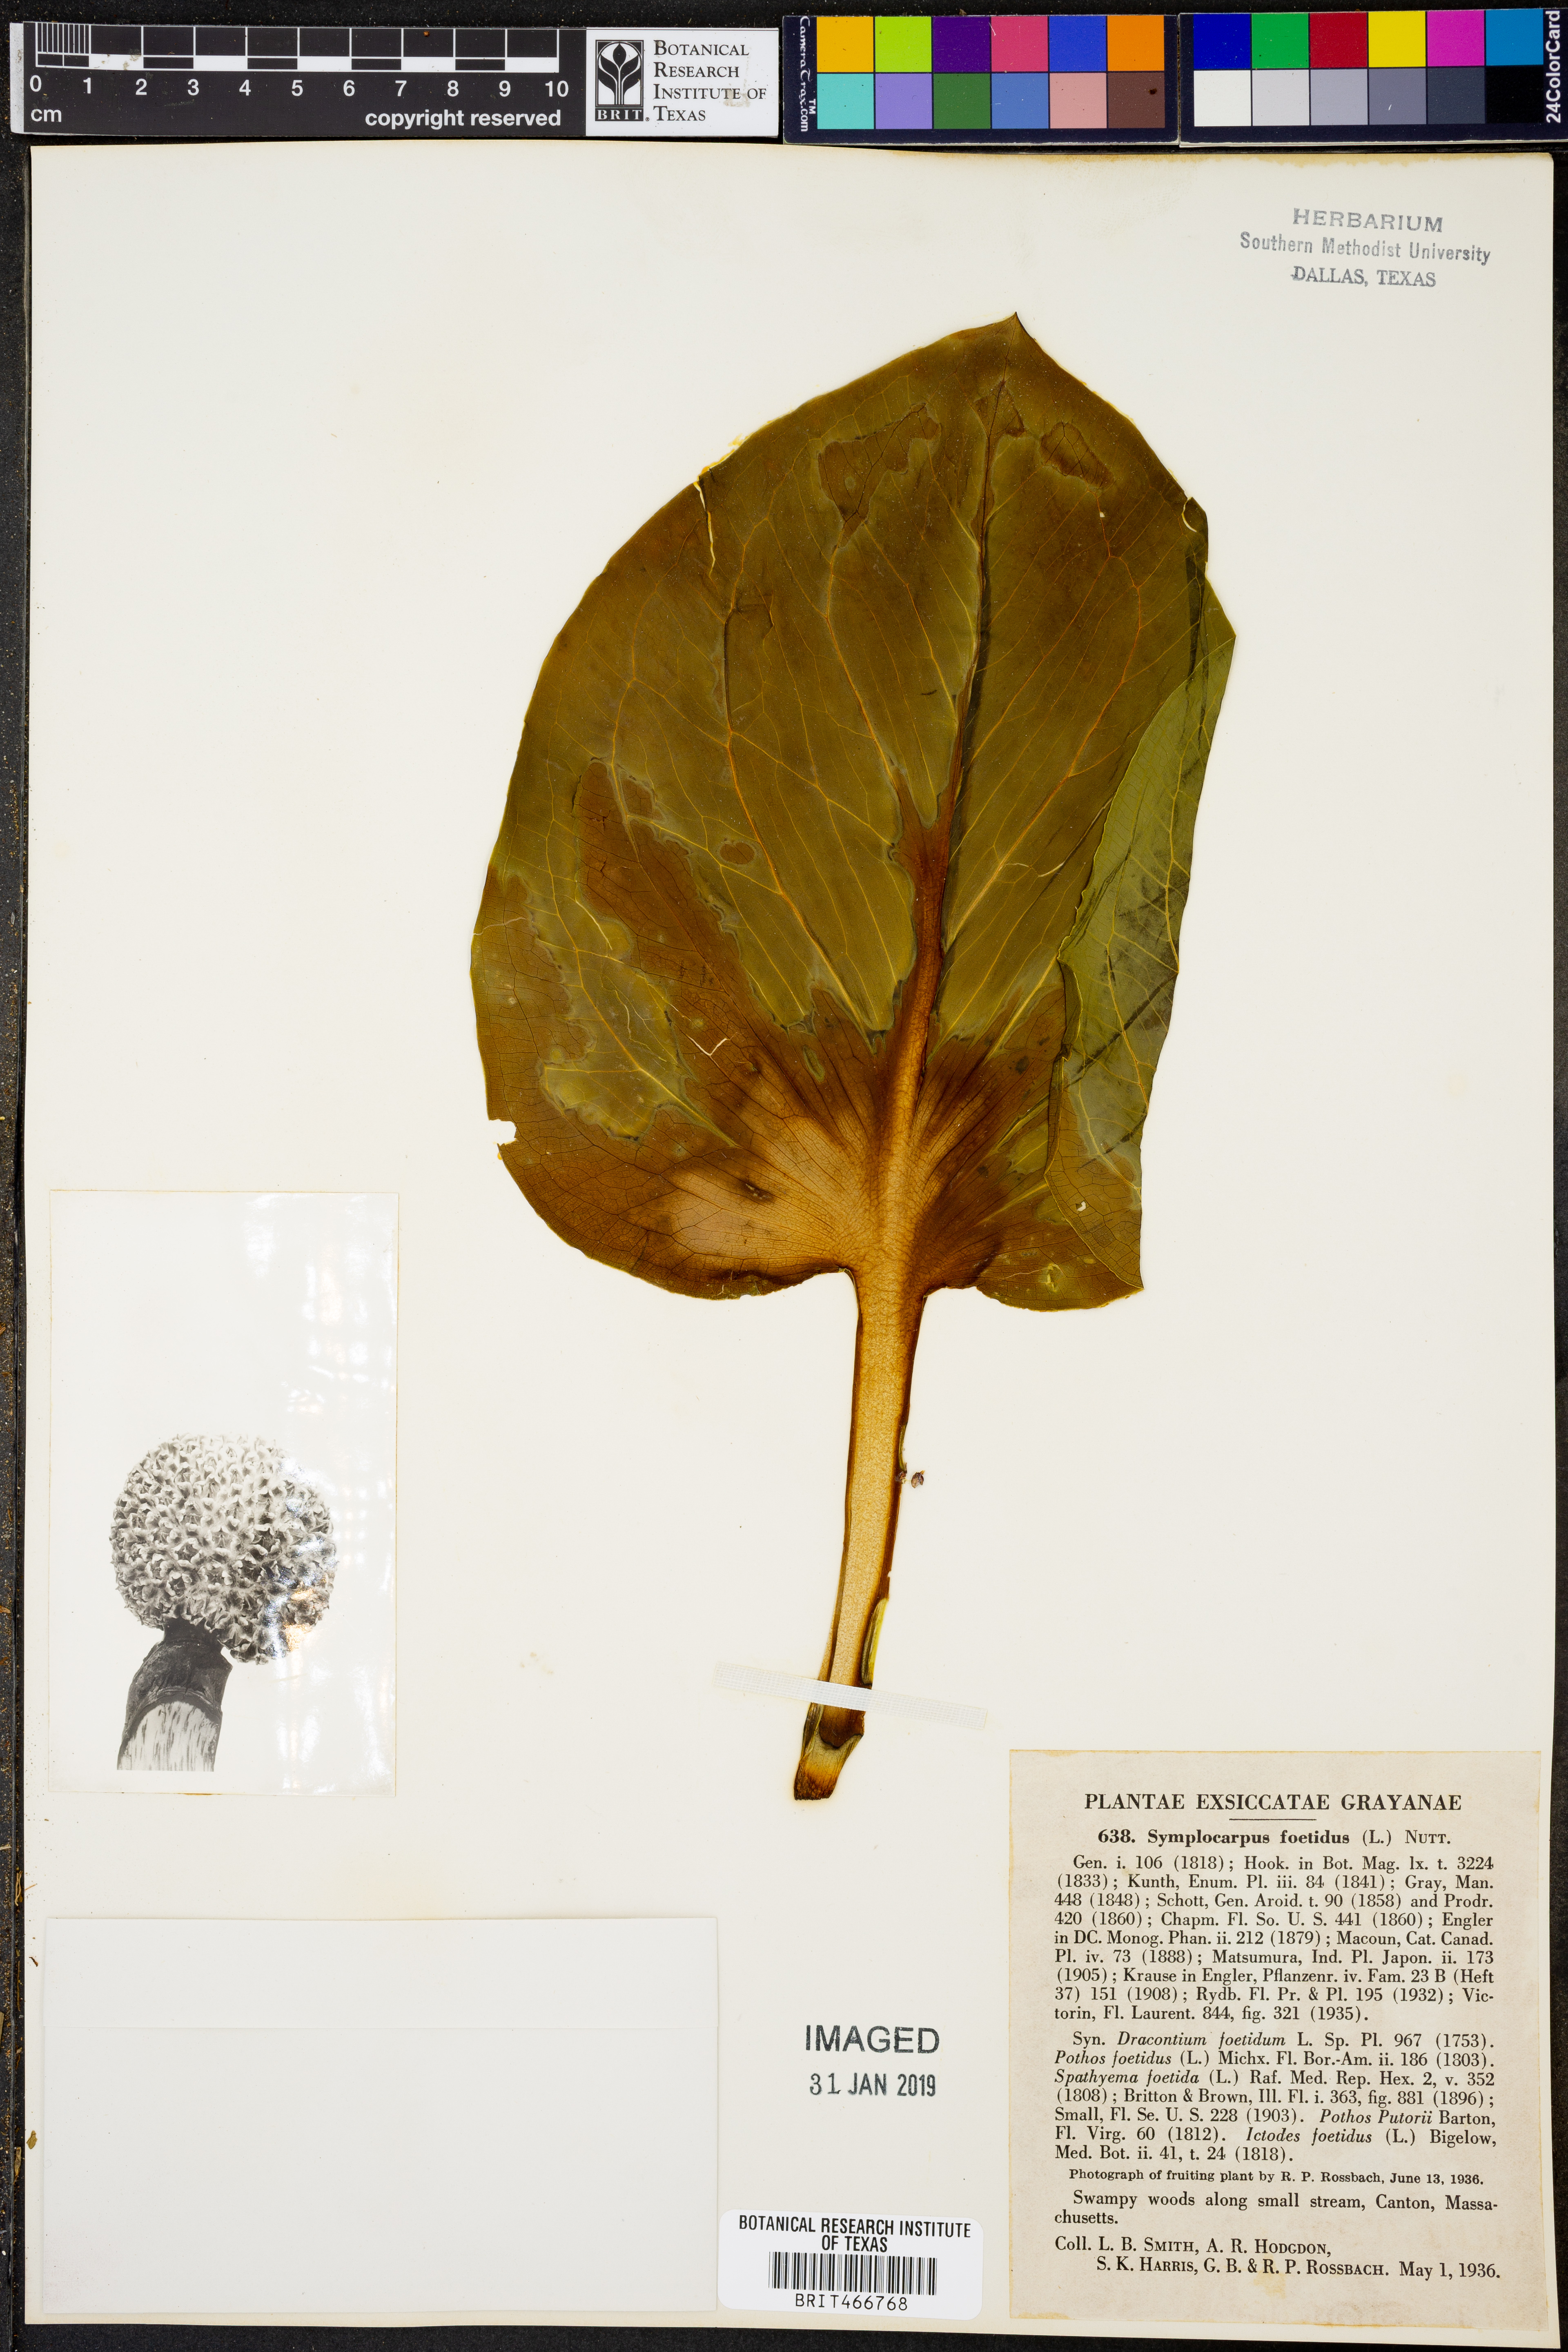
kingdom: Plantae
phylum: Tracheophyta
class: Liliopsida
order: Alismatales
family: Araceae
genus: Symplocarpus
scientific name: Symplocarpus foetidus
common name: Eastern skunk cabbage
